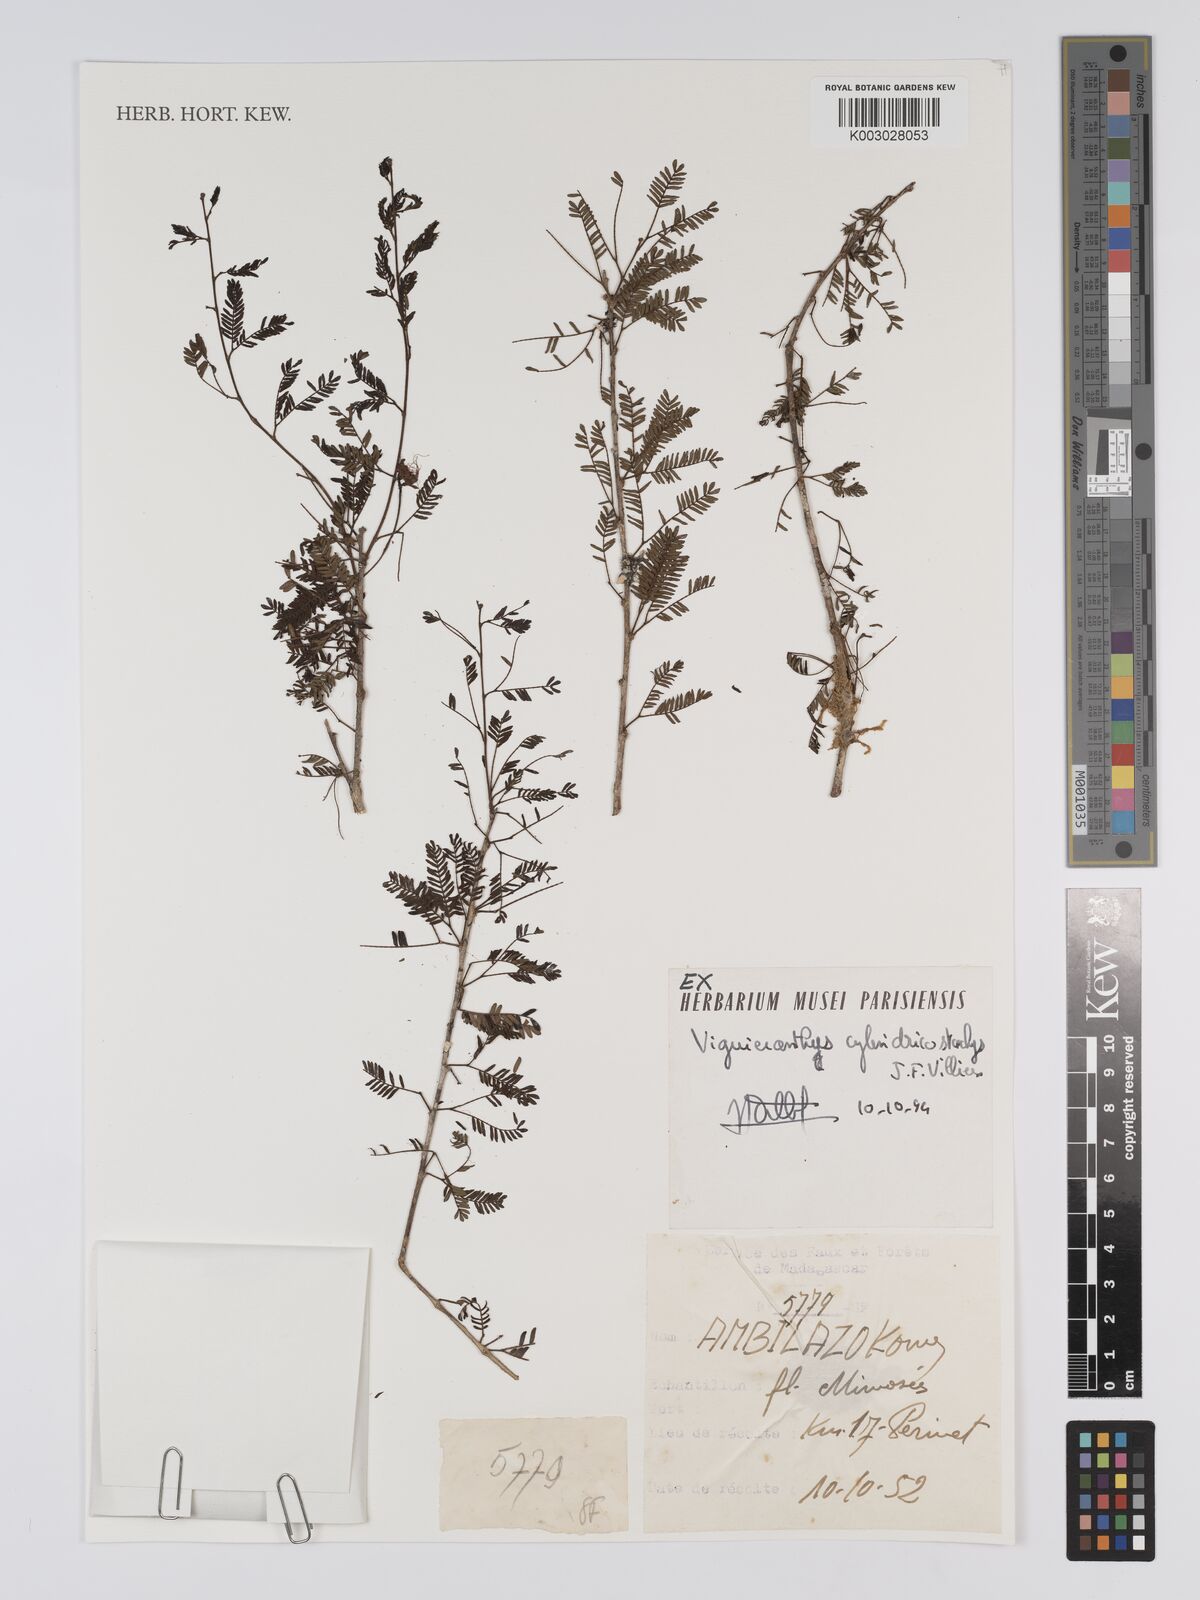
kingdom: Plantae
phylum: Tracheophyta
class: Magnoliopsida
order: Fabales
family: Fabaceae
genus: Viguieranthus
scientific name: Viguieranthus cylindricostachys
